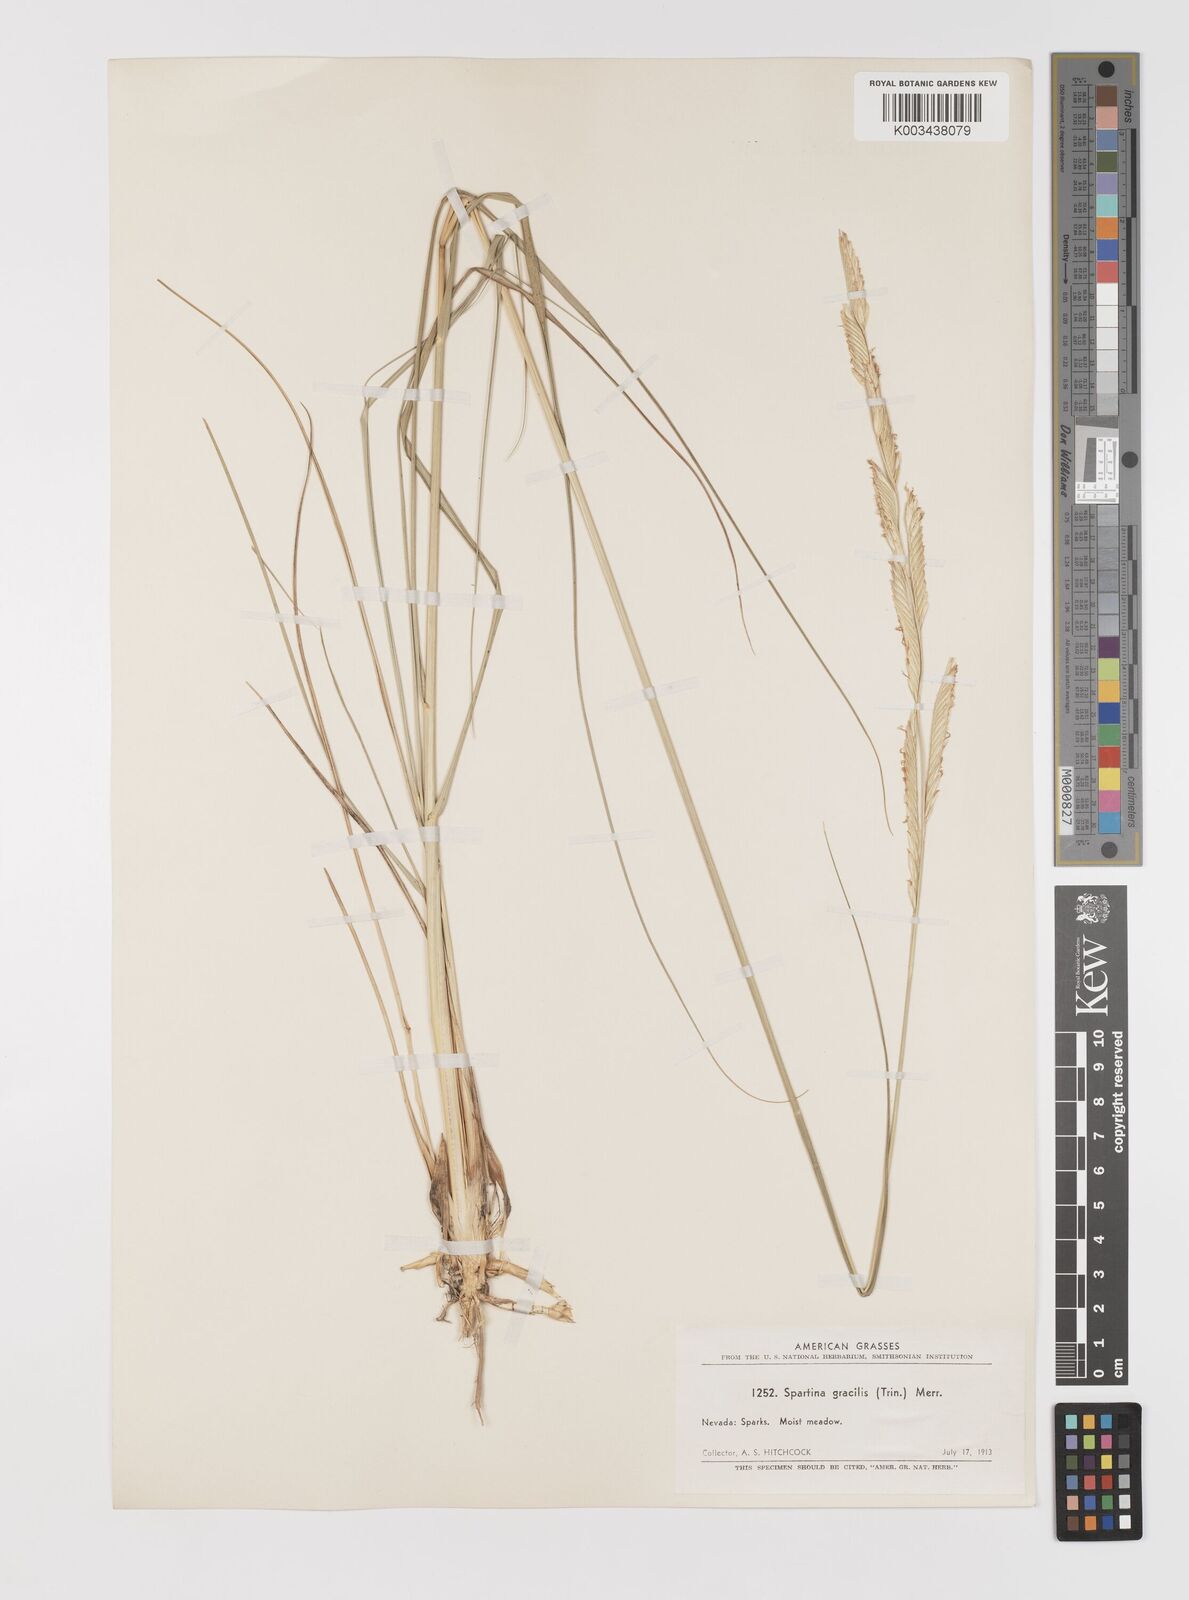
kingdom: Plantae
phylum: Tracheophyta
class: Liliopsida
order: Poales
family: Poaceae
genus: Sporobolus
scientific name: Sporobolus hookerianus
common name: Alkali cordgrass
